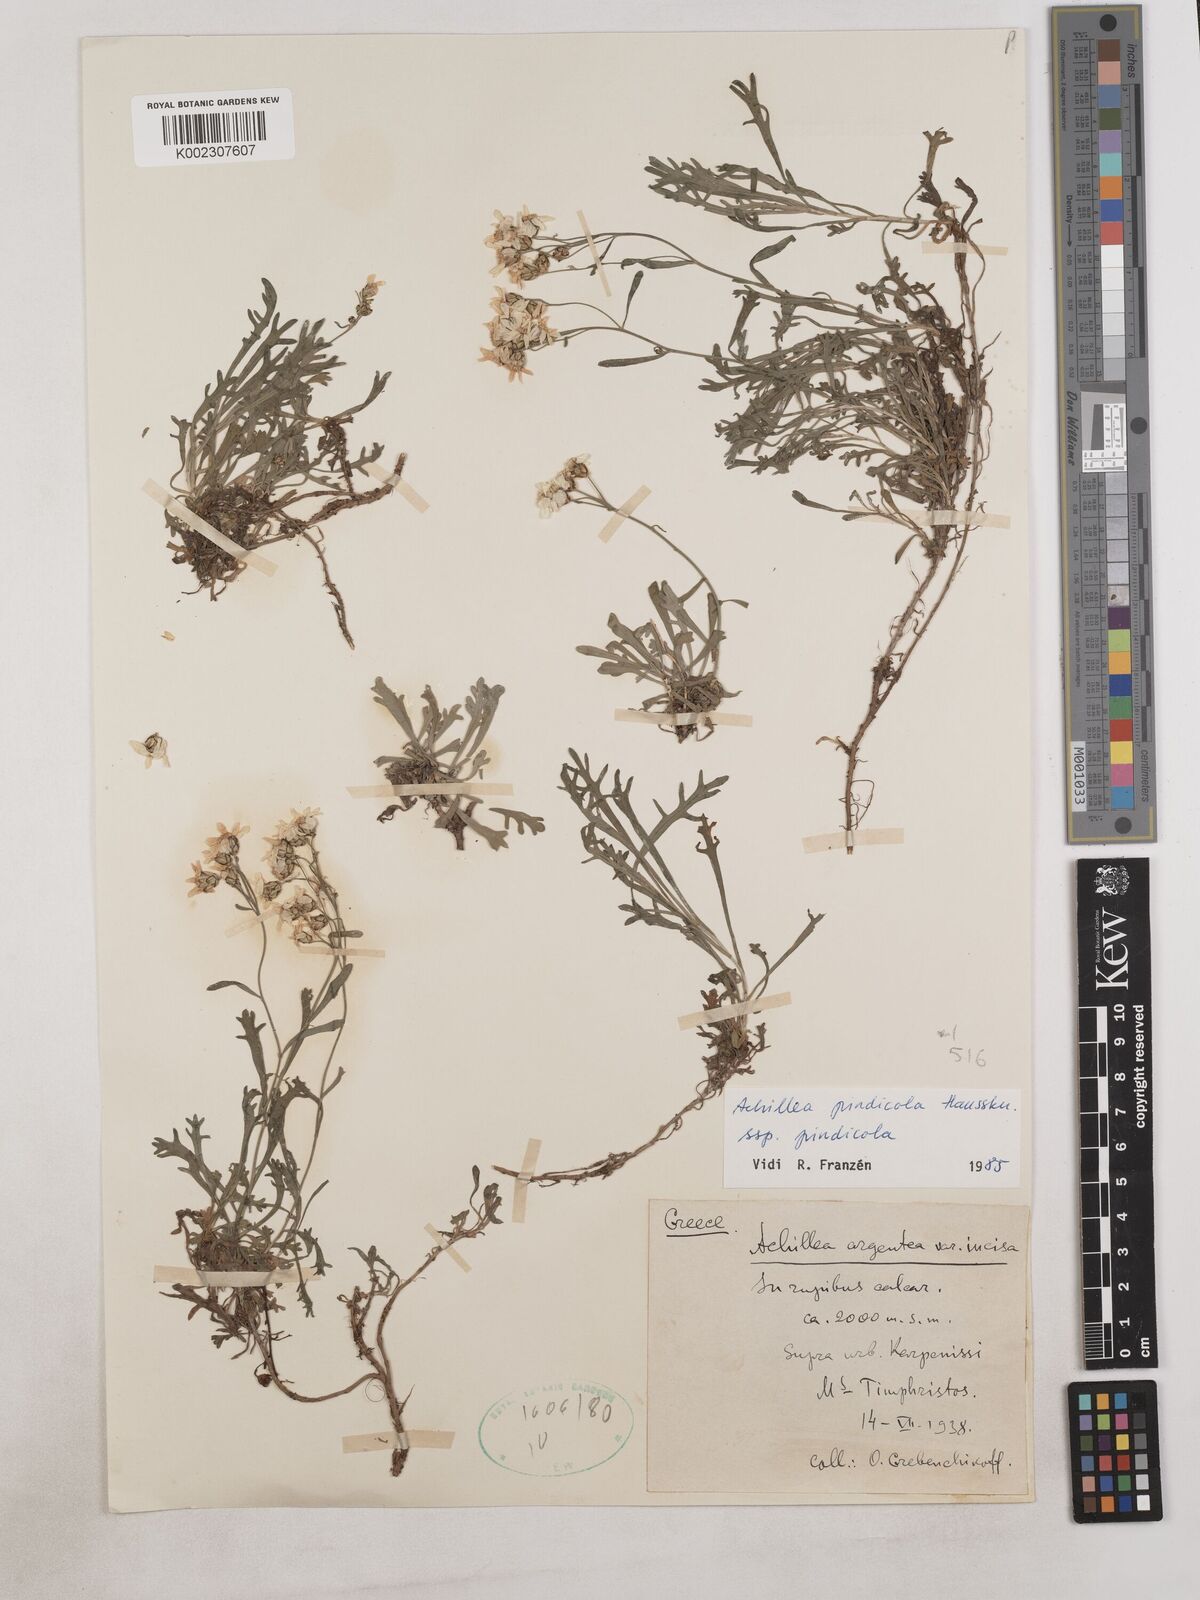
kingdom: Plantae
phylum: Tracheophyta
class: Magnoliopsida
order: Asterales
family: Asteraceae
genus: Achillea
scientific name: Achillea pindicola
